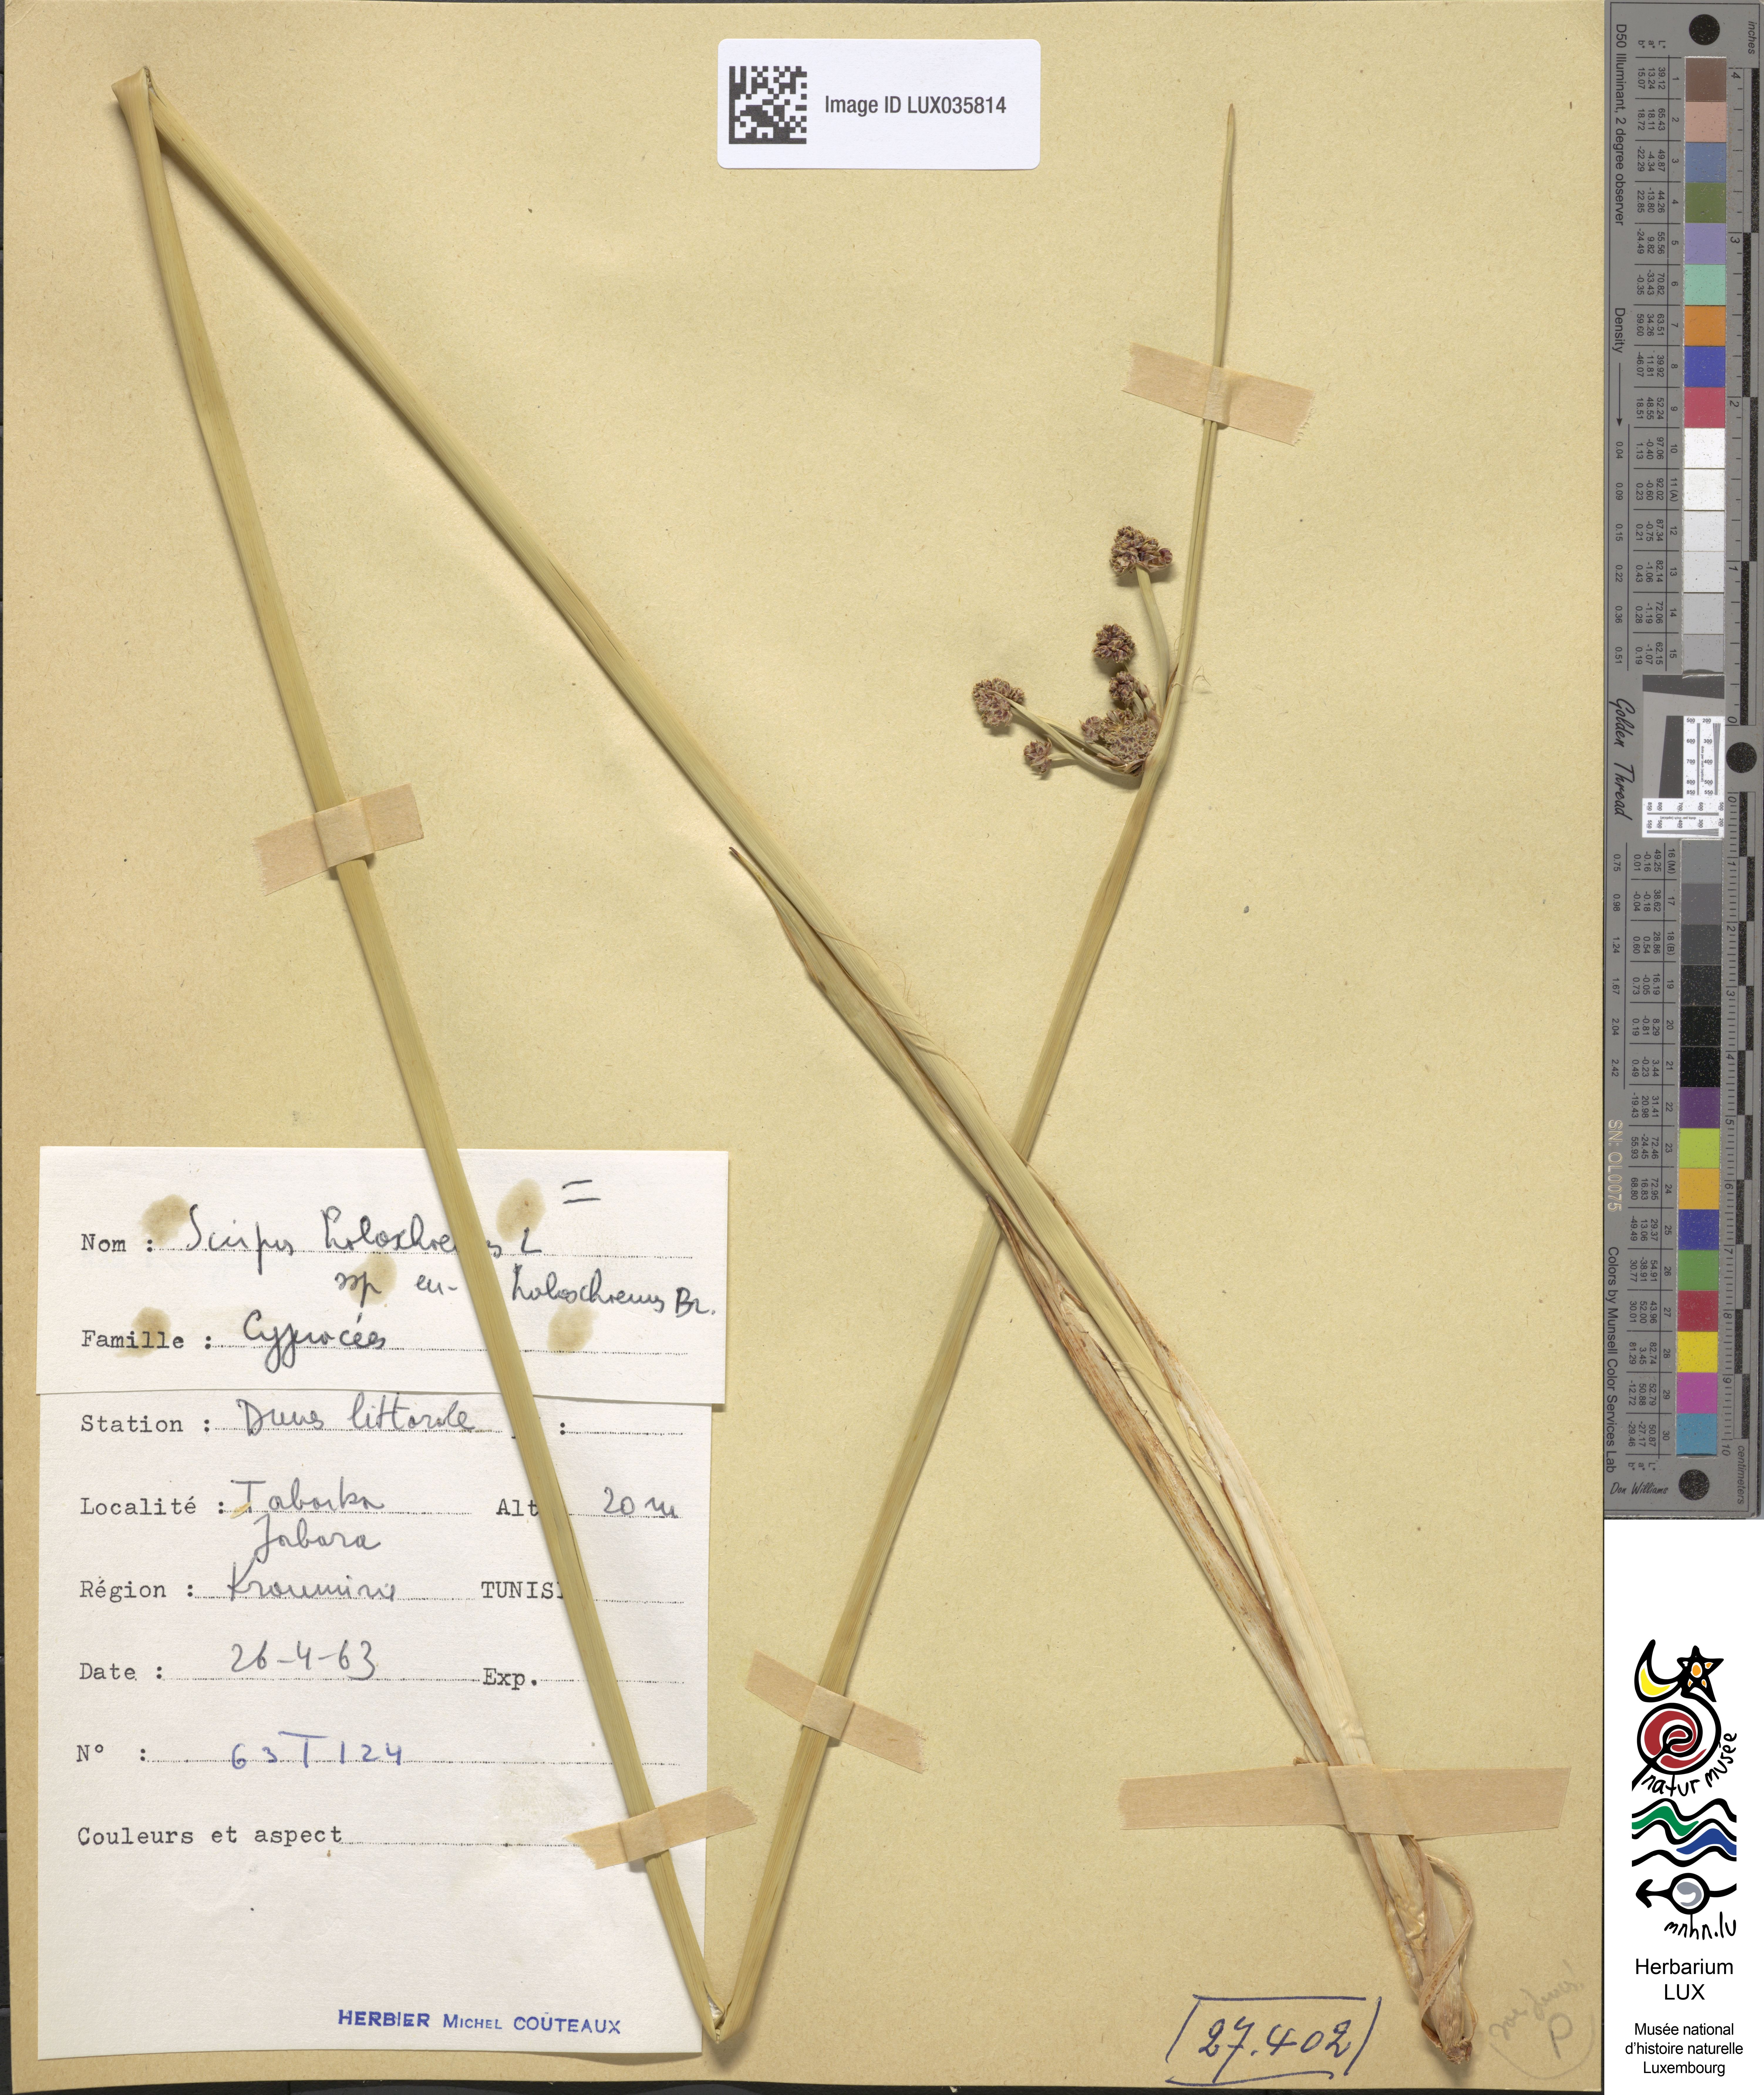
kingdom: Plantae
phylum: Tracheophyta
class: Liliopsida
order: Poales
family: Cyperaceae
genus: Scirpoides
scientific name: Scirpoides holoschoenus
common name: Round-headed club-rush
